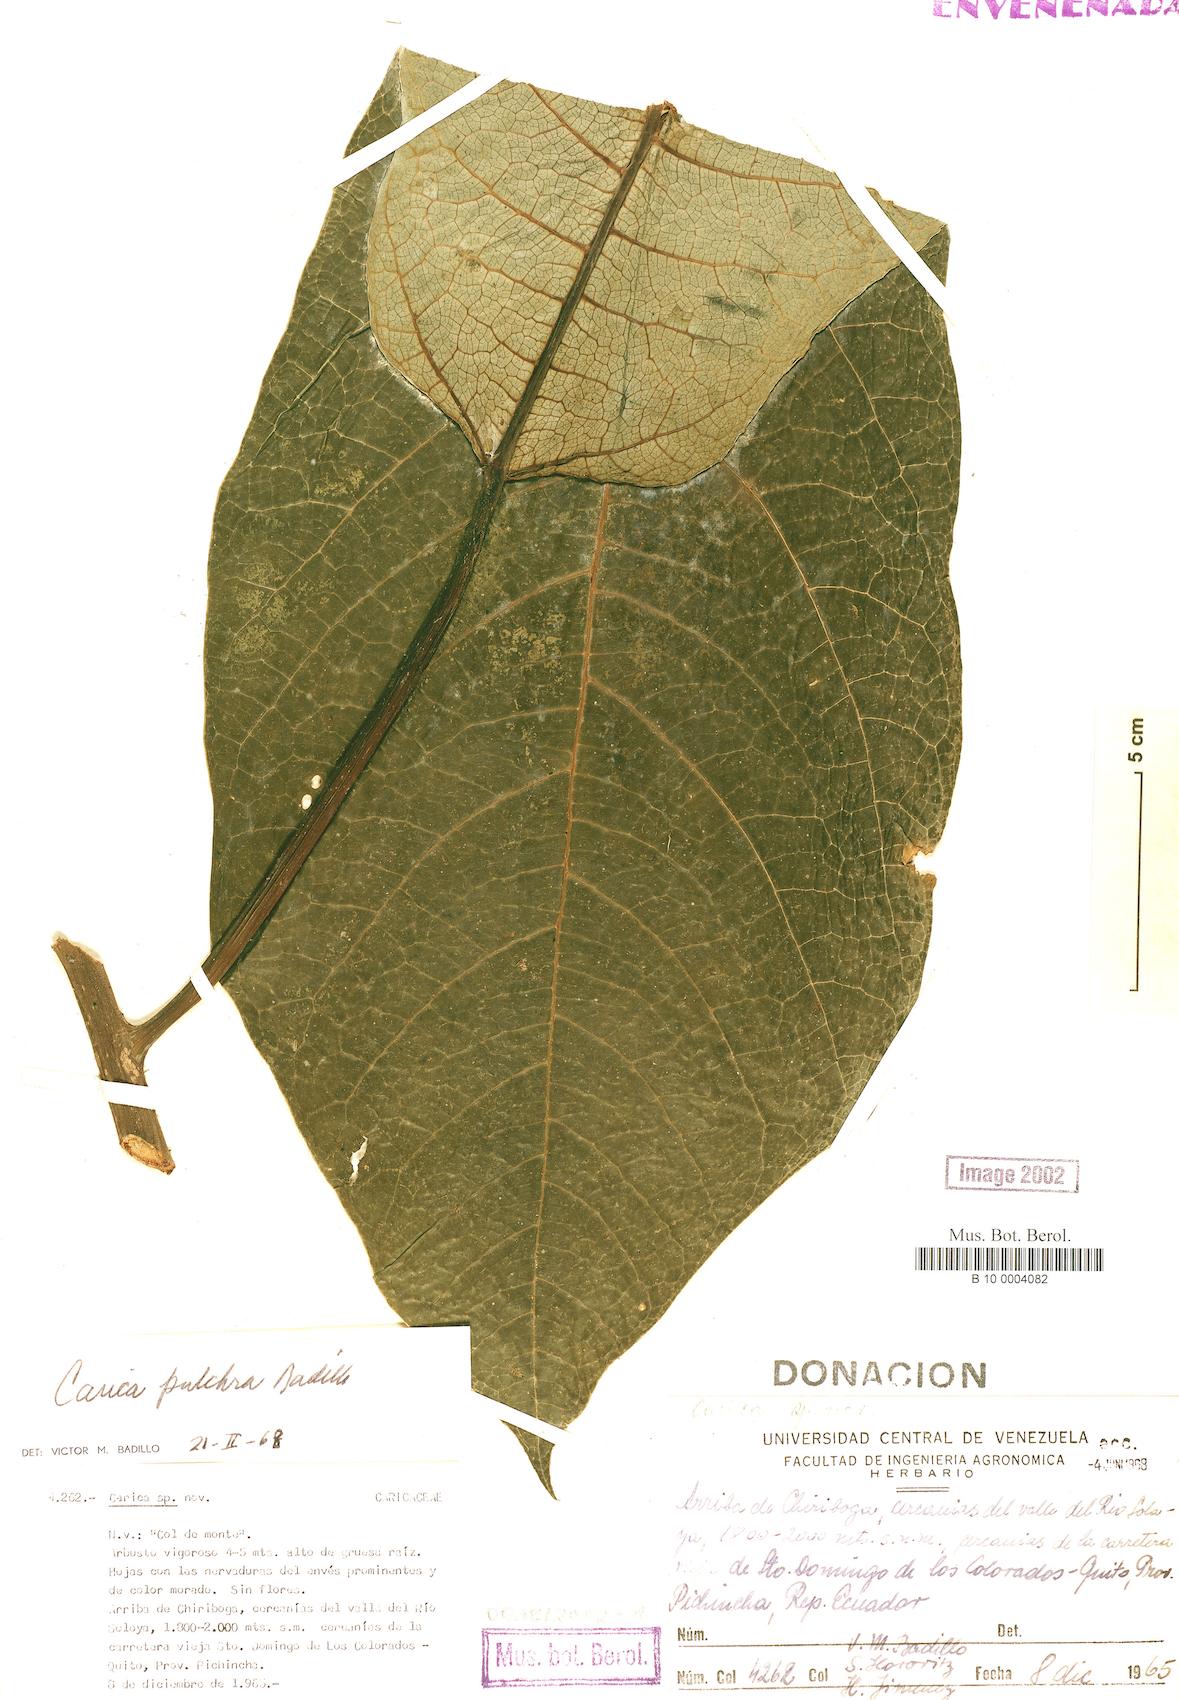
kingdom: Plantae
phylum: Tracheophyta
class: Magnoliopsida
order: Brassicales
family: Caricaceae
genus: Vasconcellea
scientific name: Vasconcellea pulchra
